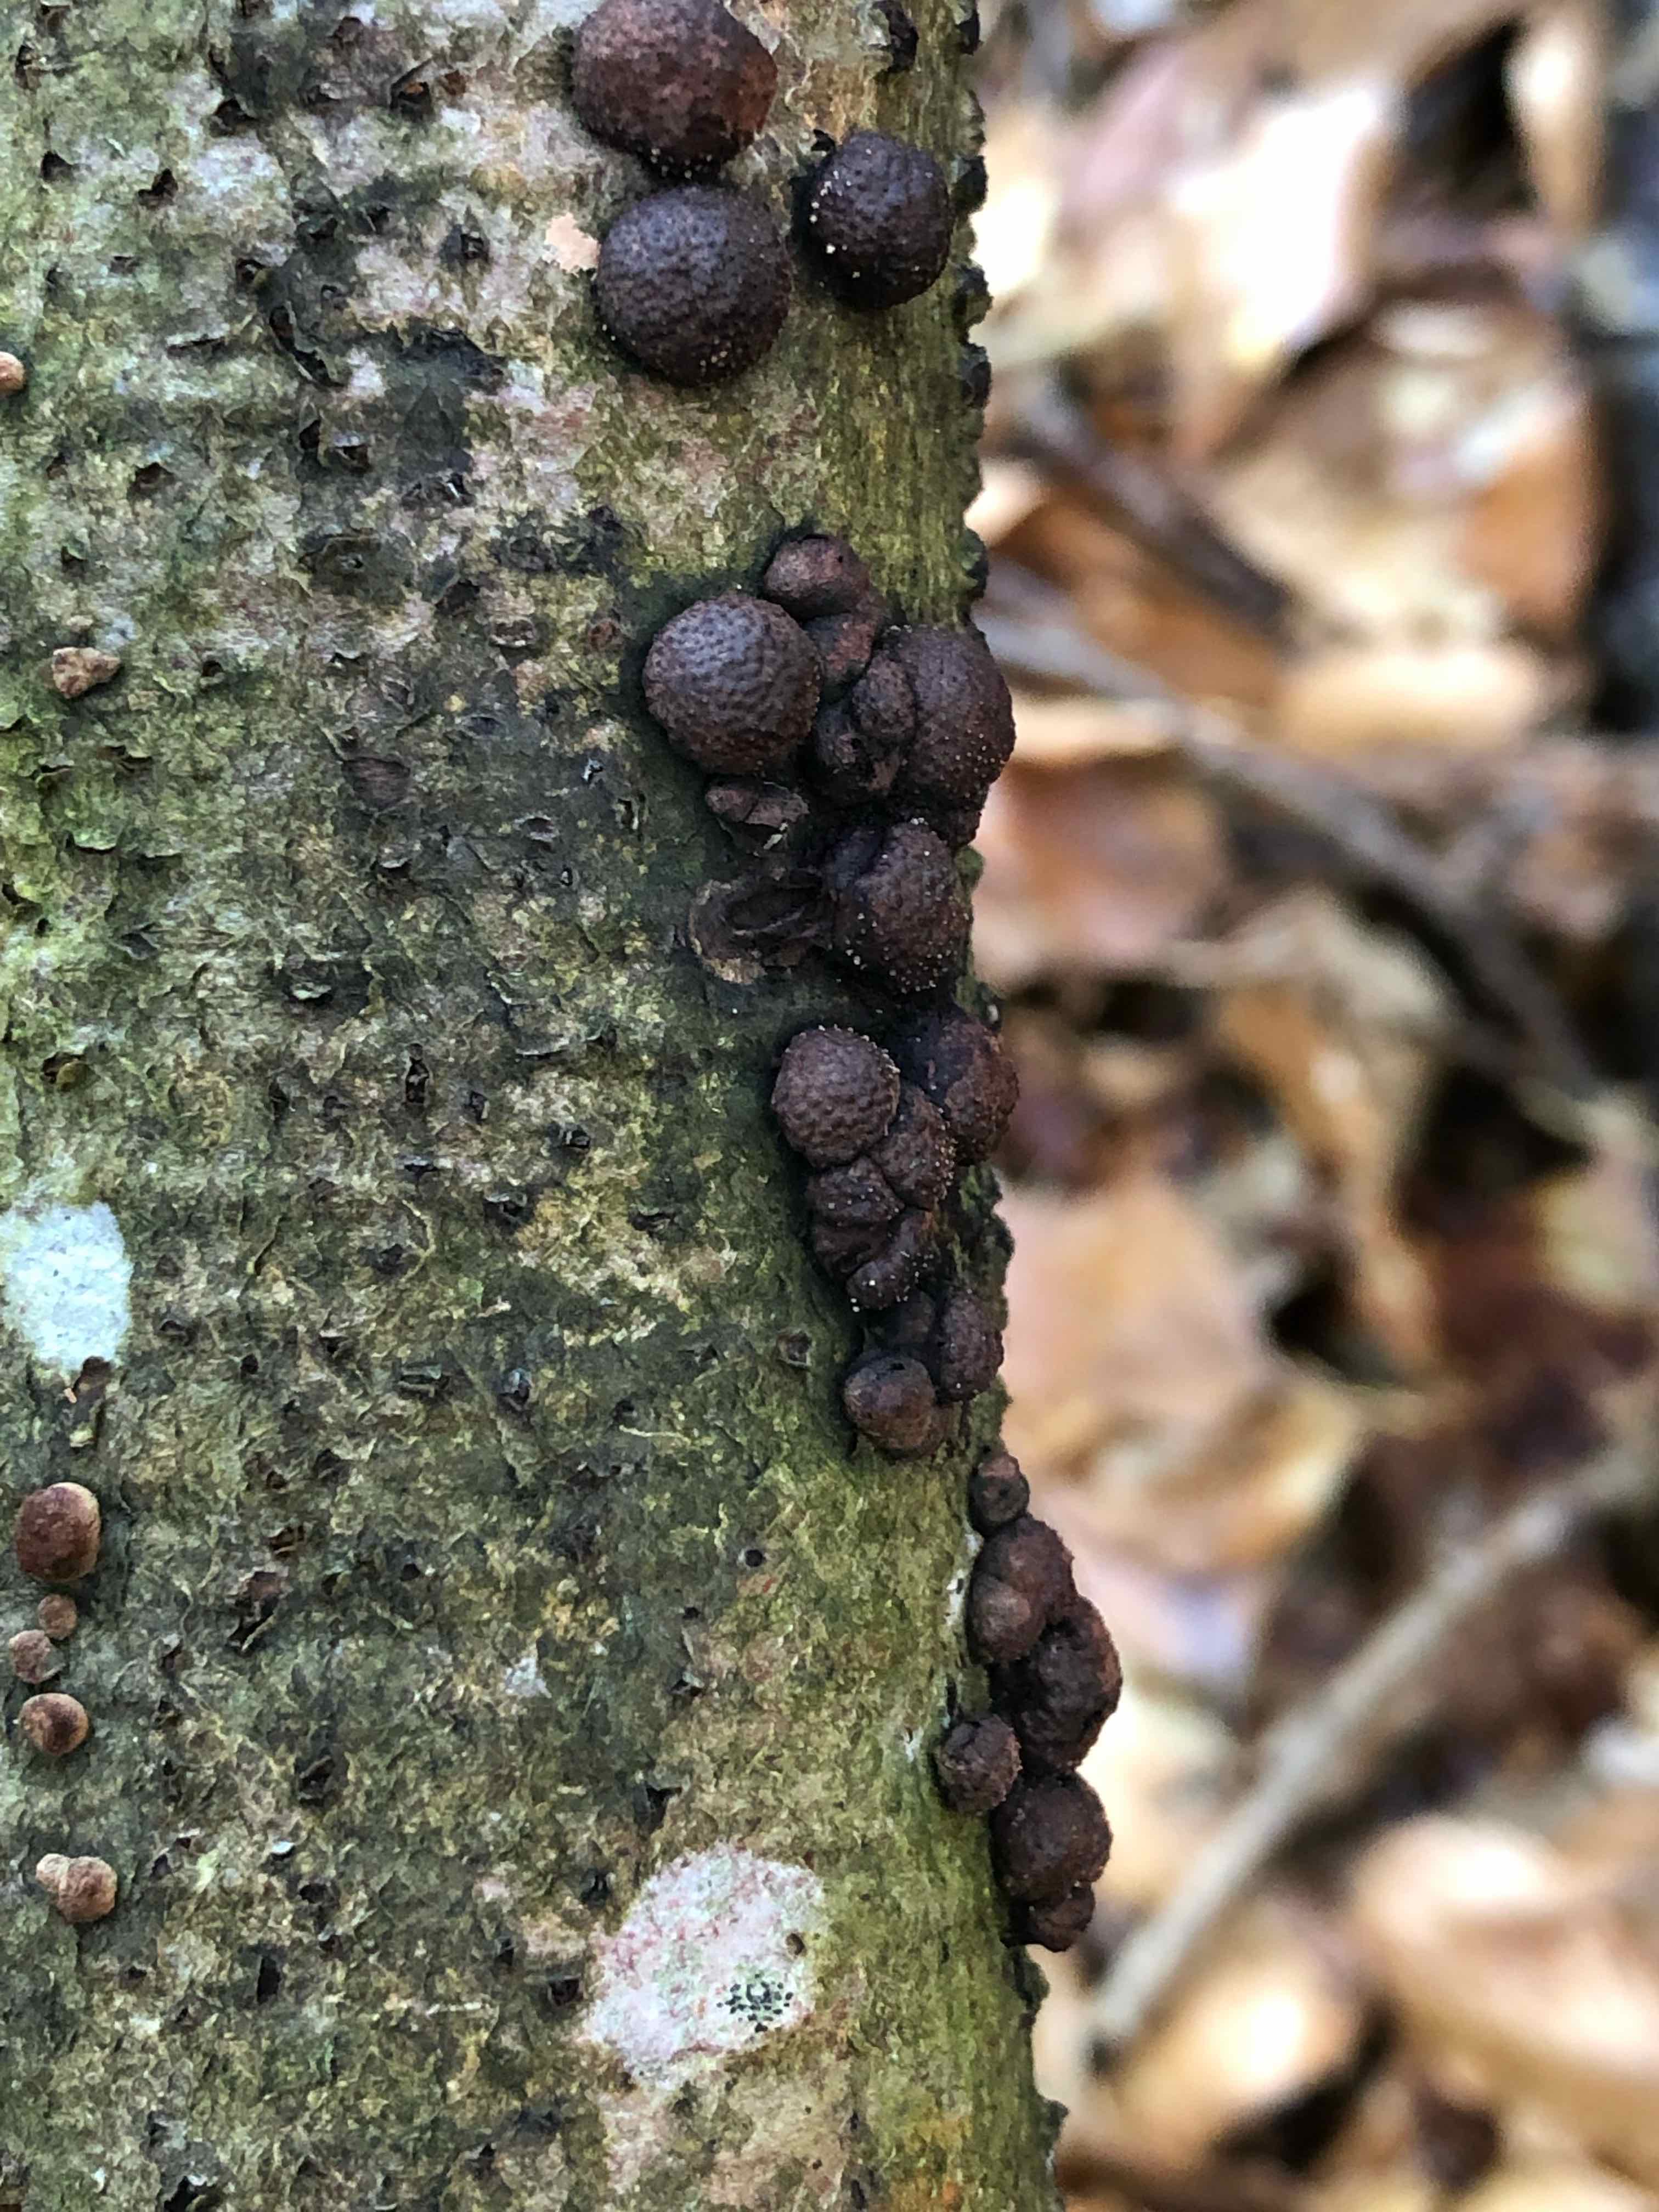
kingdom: Fungi
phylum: Ascomycota
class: Sordariomycetes
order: Xylariales
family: Hypoxylaceae
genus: Hypoxylon
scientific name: Hypoxylon fragiforme
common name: kuljordbær
